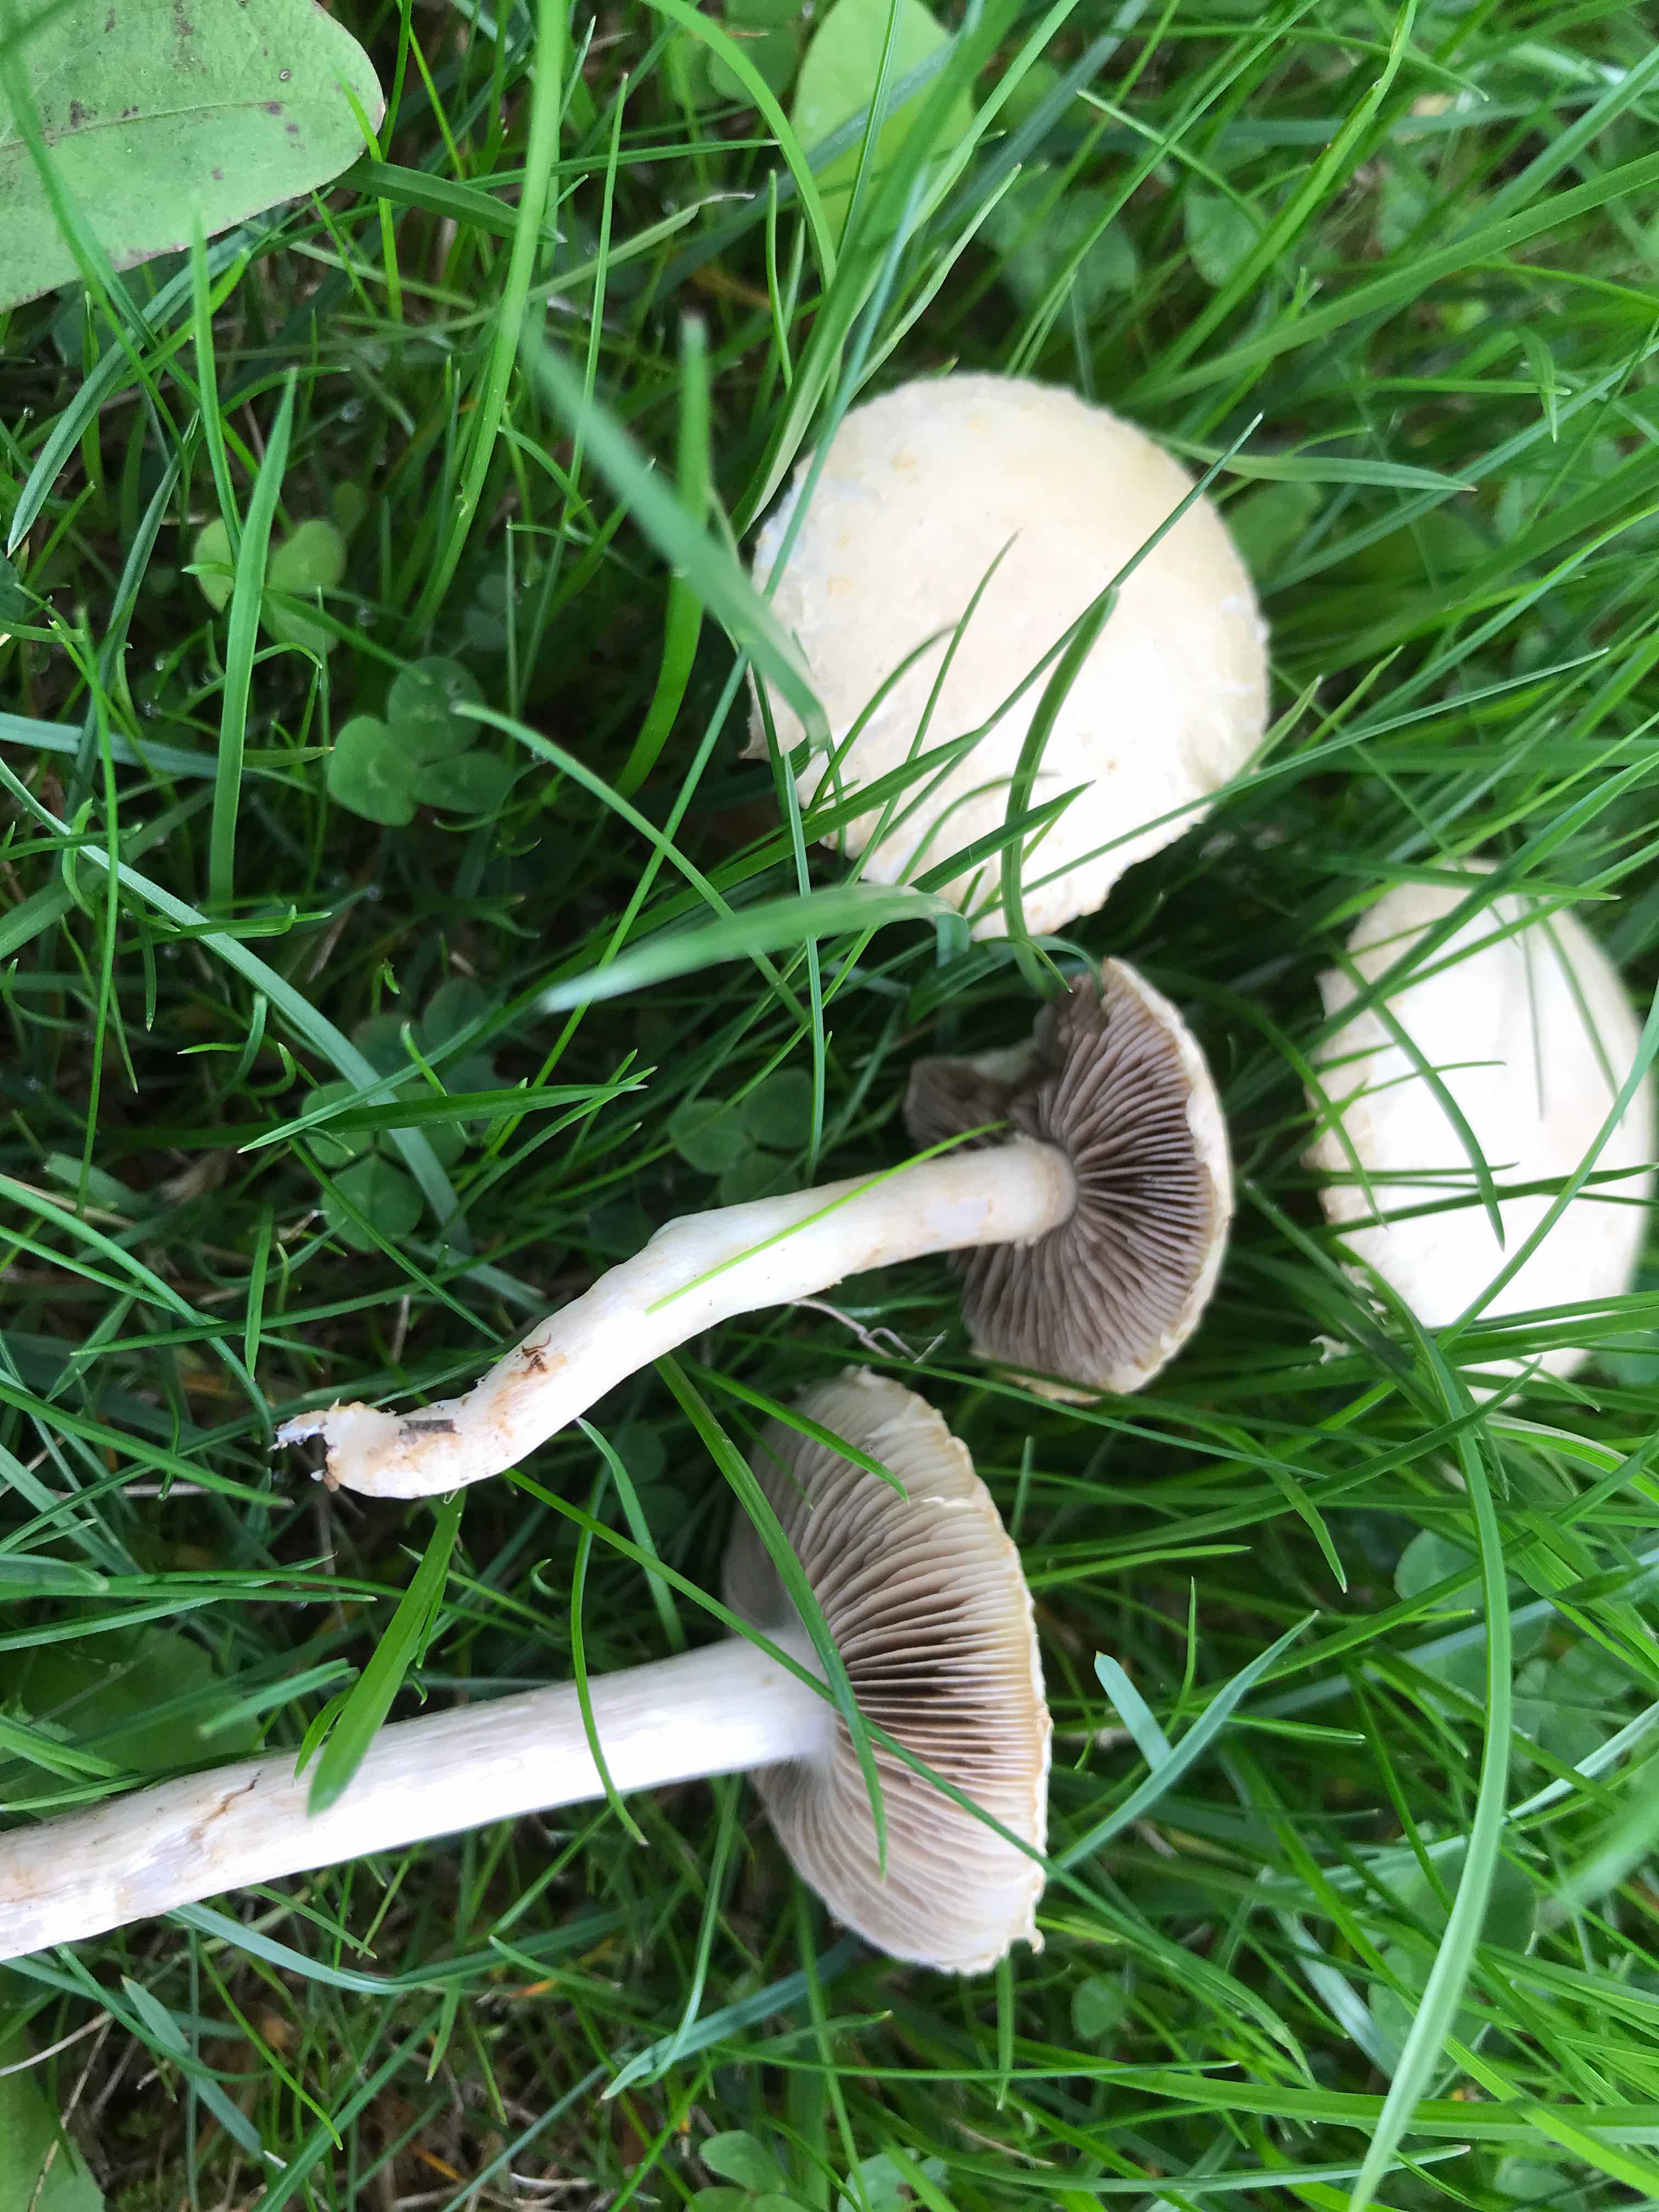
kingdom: Fungi
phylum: Basidiomycota
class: Agaricomycetes
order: Agaricales
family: Strophariaceae
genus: Agrocybe
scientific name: Agrocybe dura
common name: fastkødet agerhat
